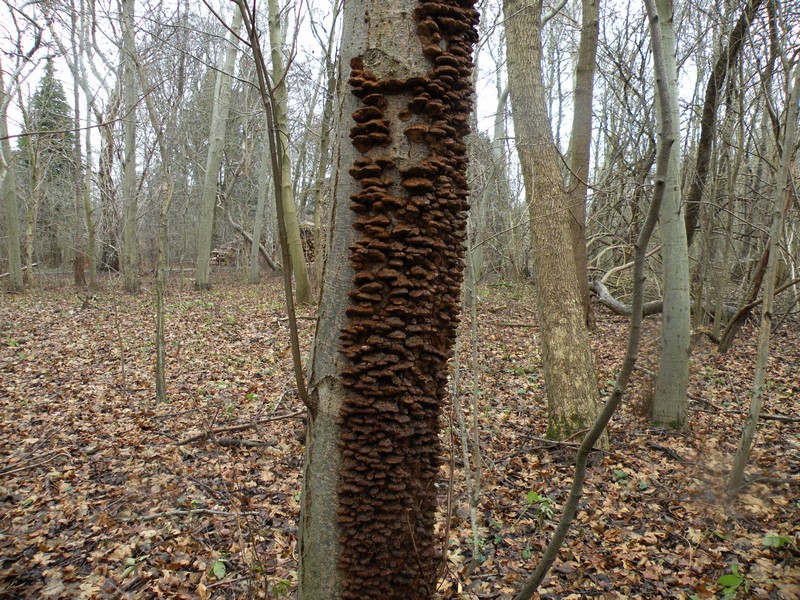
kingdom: Fungi
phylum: Basidiomycota
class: Agaricomycetes
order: Hymenochaetales
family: Hymenochaetaceae
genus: Xanthoporia
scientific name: Xanthoporia radiata
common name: elle-spejlporesvamp
